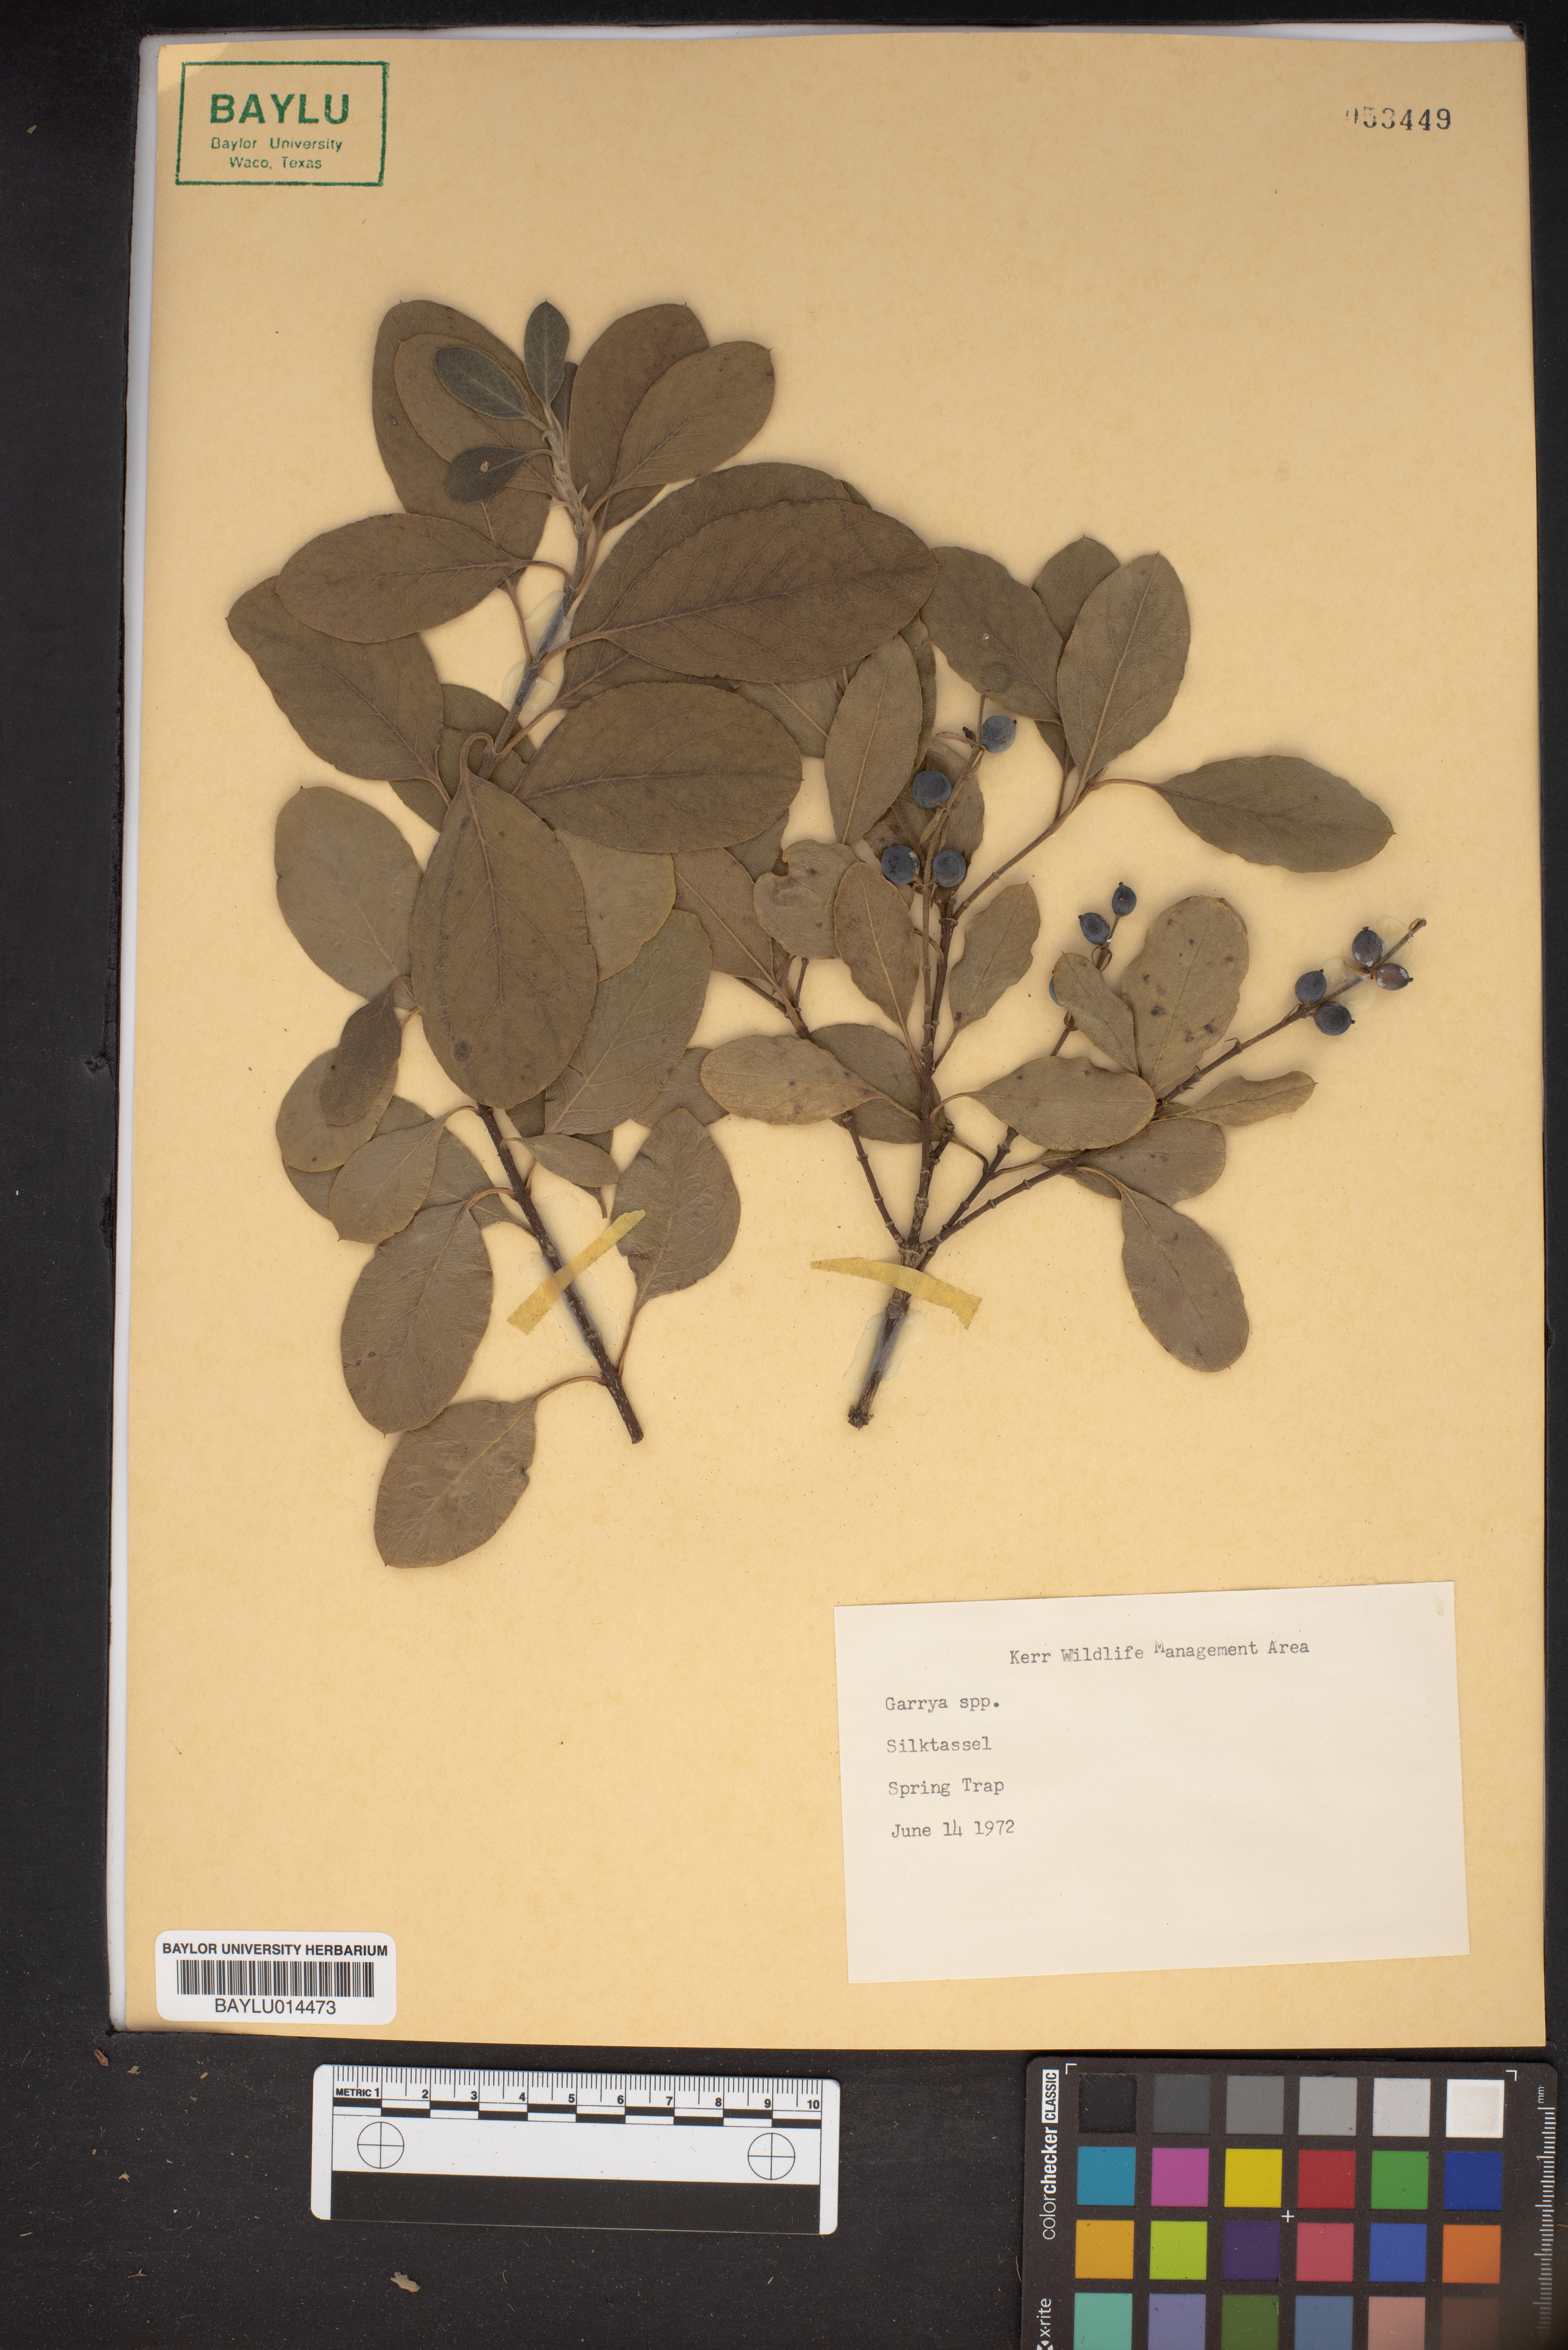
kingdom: Plantae
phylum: Tracheophyta
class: Magnoliopsida
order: Garryales
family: Garryaceae
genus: Garrya
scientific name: Garrya
